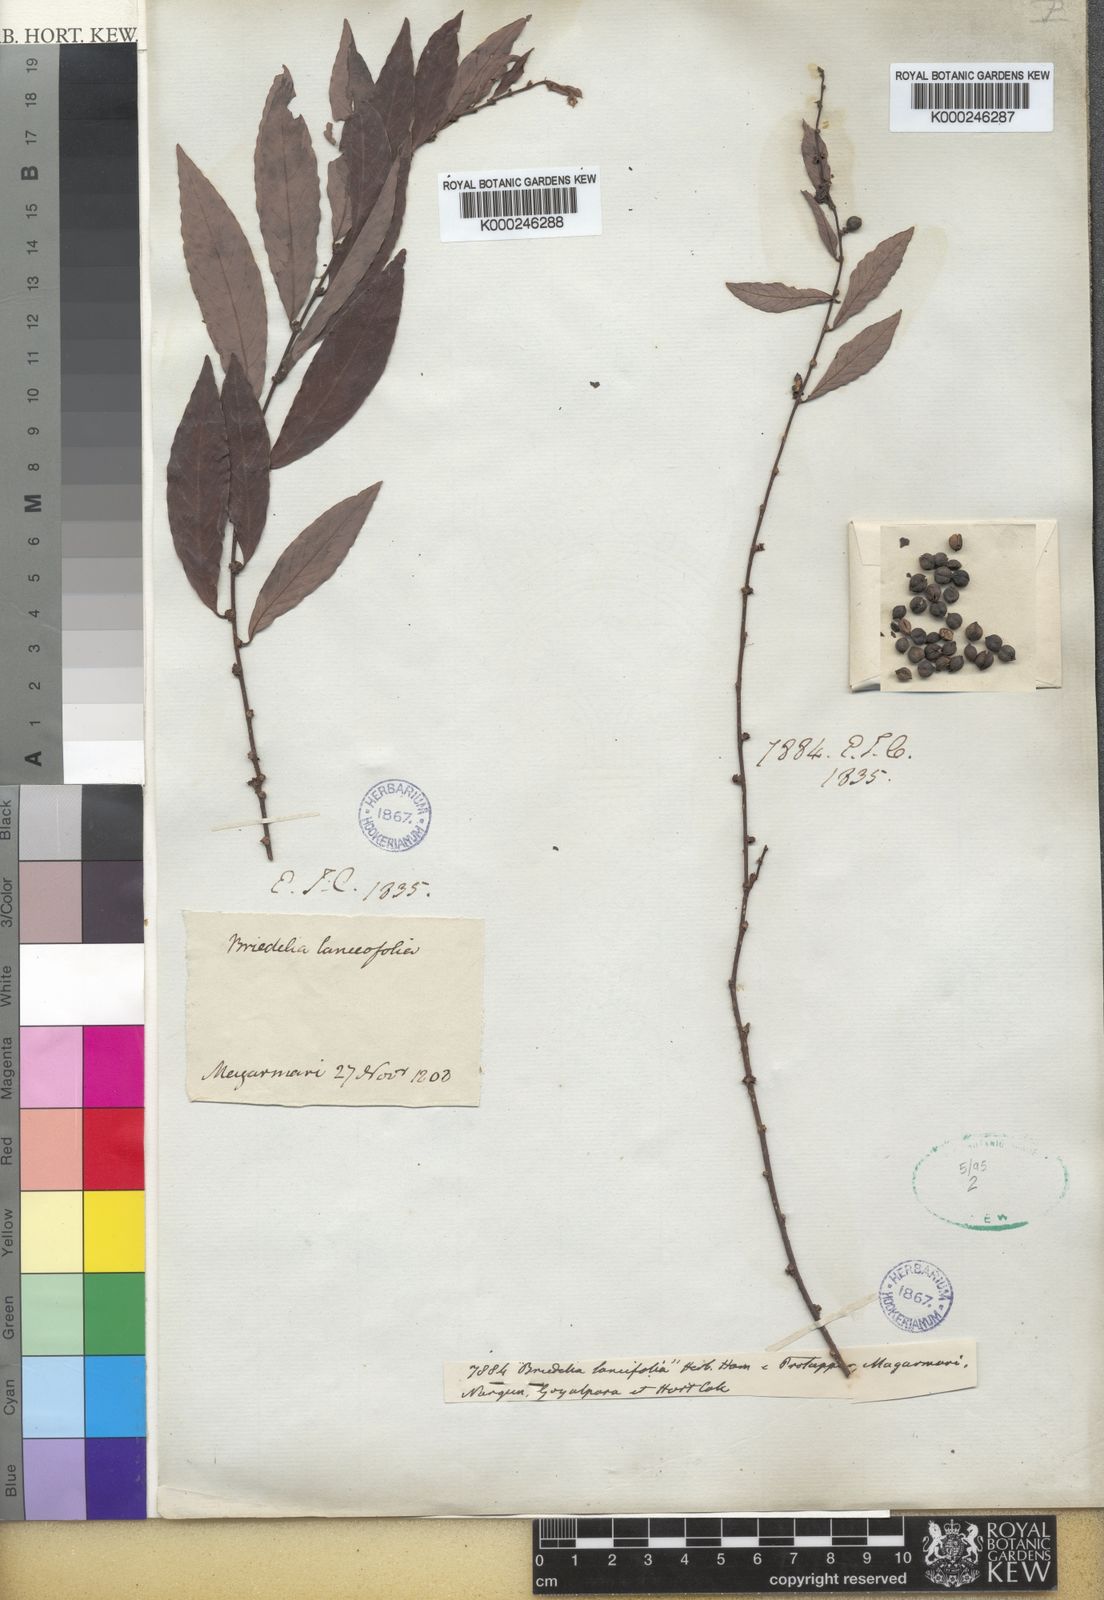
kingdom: Plantae
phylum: Tracheophyta
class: Magnoliopsida
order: Malpighiales
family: Phyllanthaceae
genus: Bridelia
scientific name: Bridelia tomentosa
